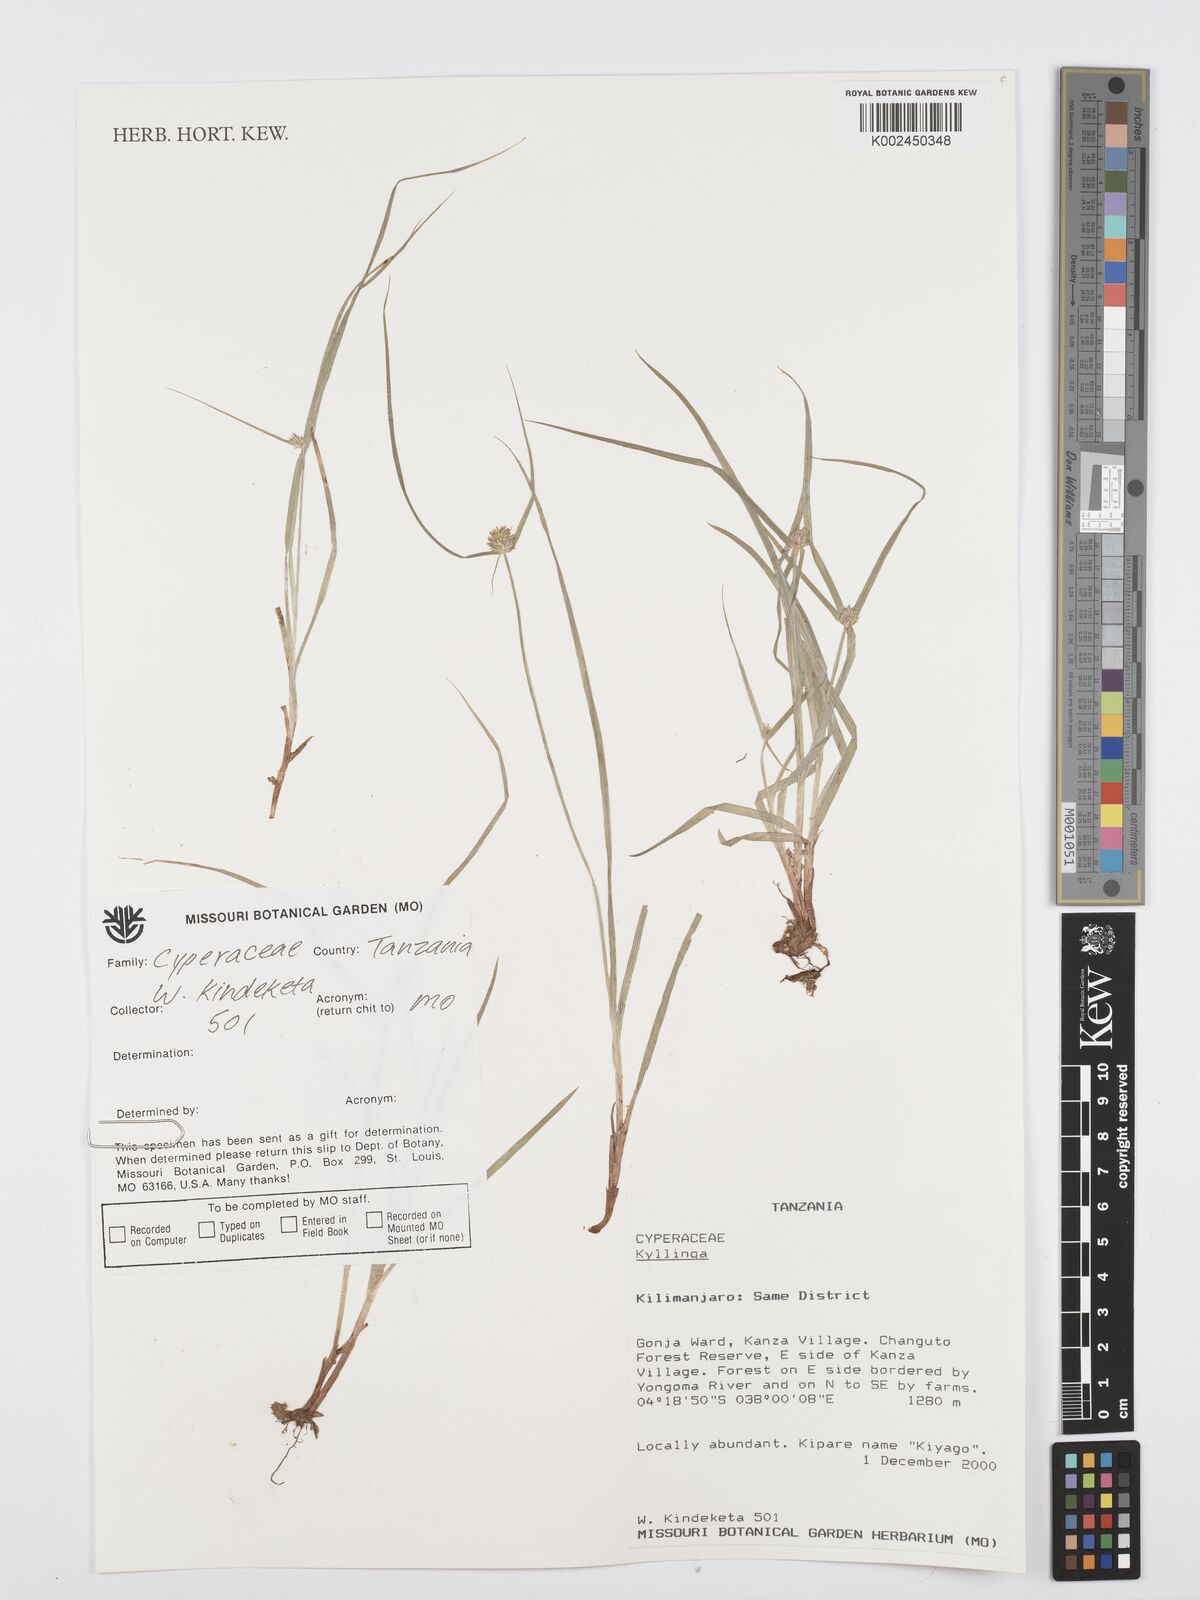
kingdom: Plantae
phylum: Tracheophyta
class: Liliopsida
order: Poales
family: Cyperaceae
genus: Cyperus
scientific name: Cyperus
